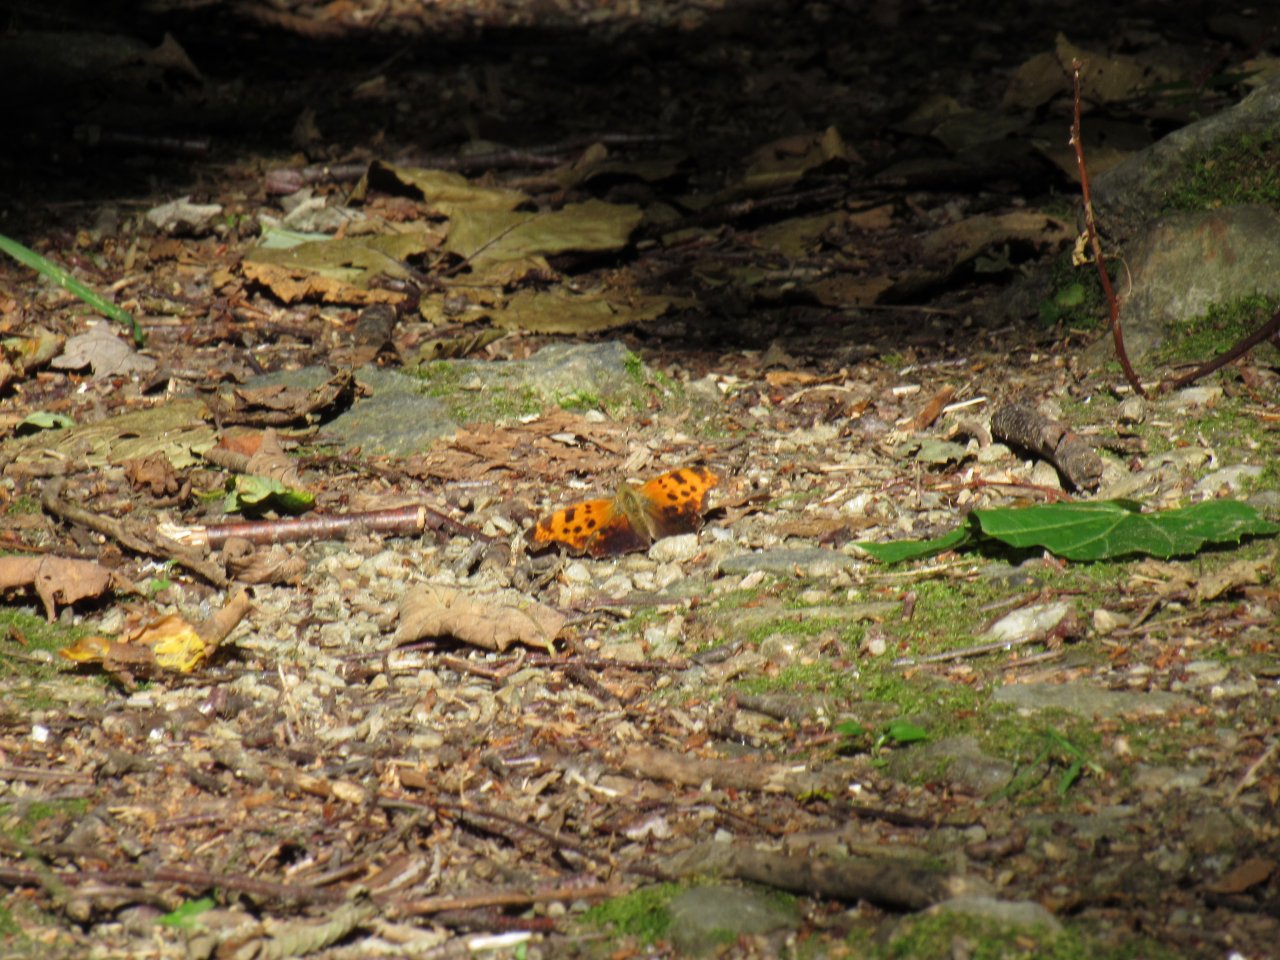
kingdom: Animalia
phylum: Arthropoda
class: Insecta
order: Lepidoptera
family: Nymphalidae
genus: Polygonia
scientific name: Polygonia comma
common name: Eastern Comma
